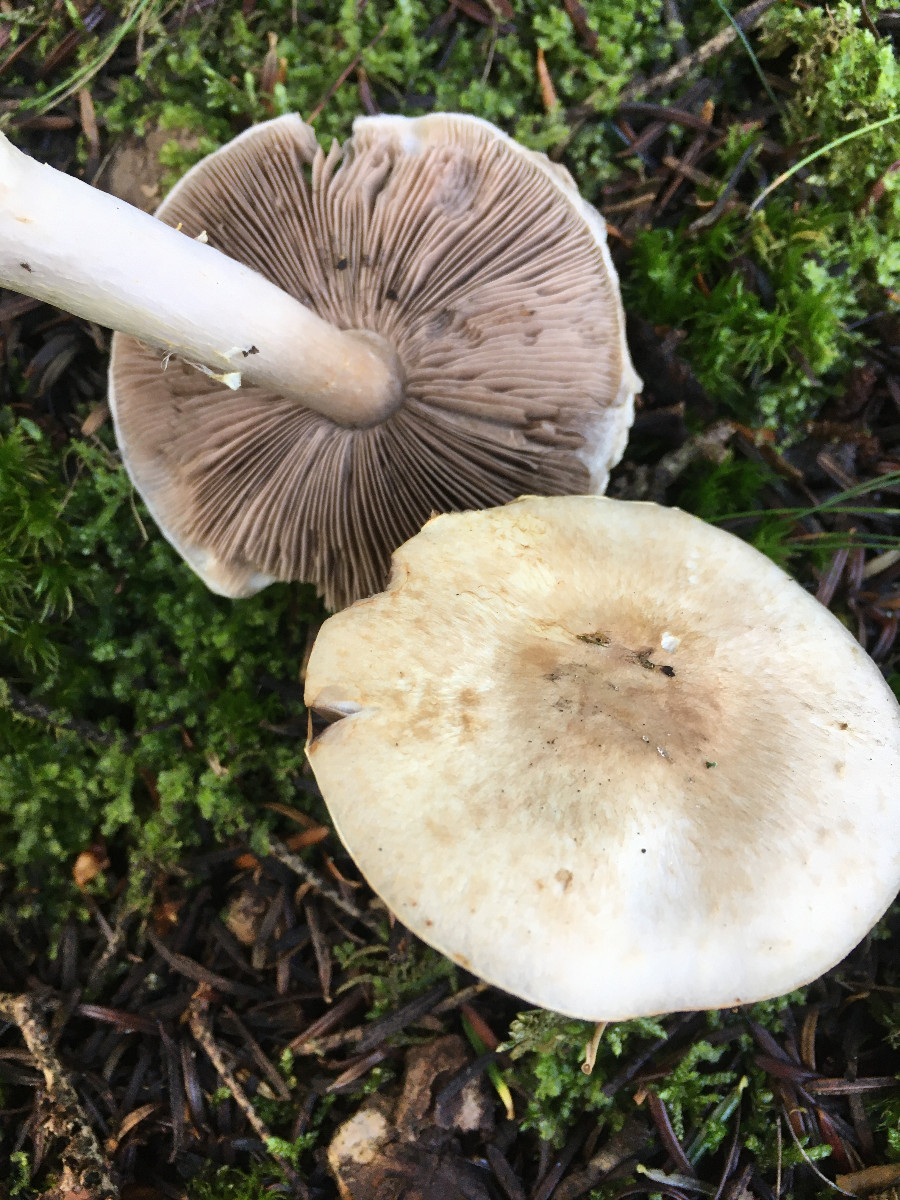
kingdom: Fungi
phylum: Basidiomycota
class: Agaricomycetes
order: Agaricales
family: Agaricaceae
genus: Agaricus
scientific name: Agaricus
